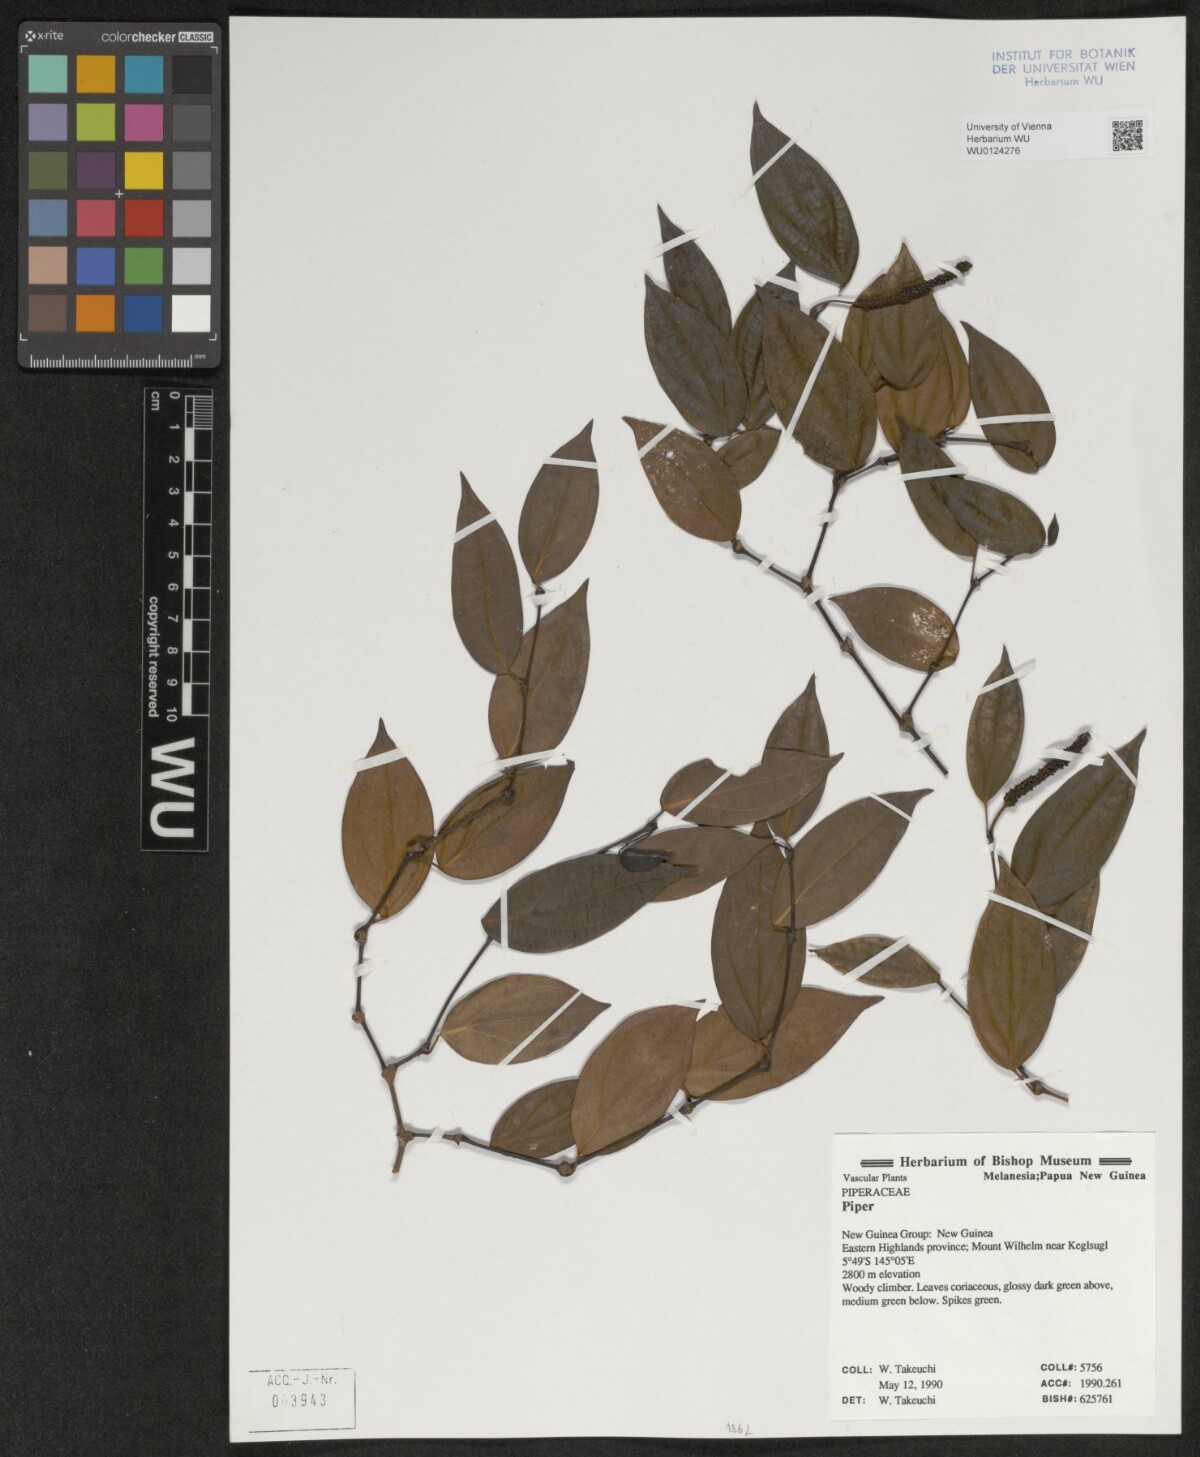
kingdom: Plantae
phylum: Tracheophyta
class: Magnoliopsida
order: Piperales
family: Piperaceae
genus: Piper
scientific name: Piper
